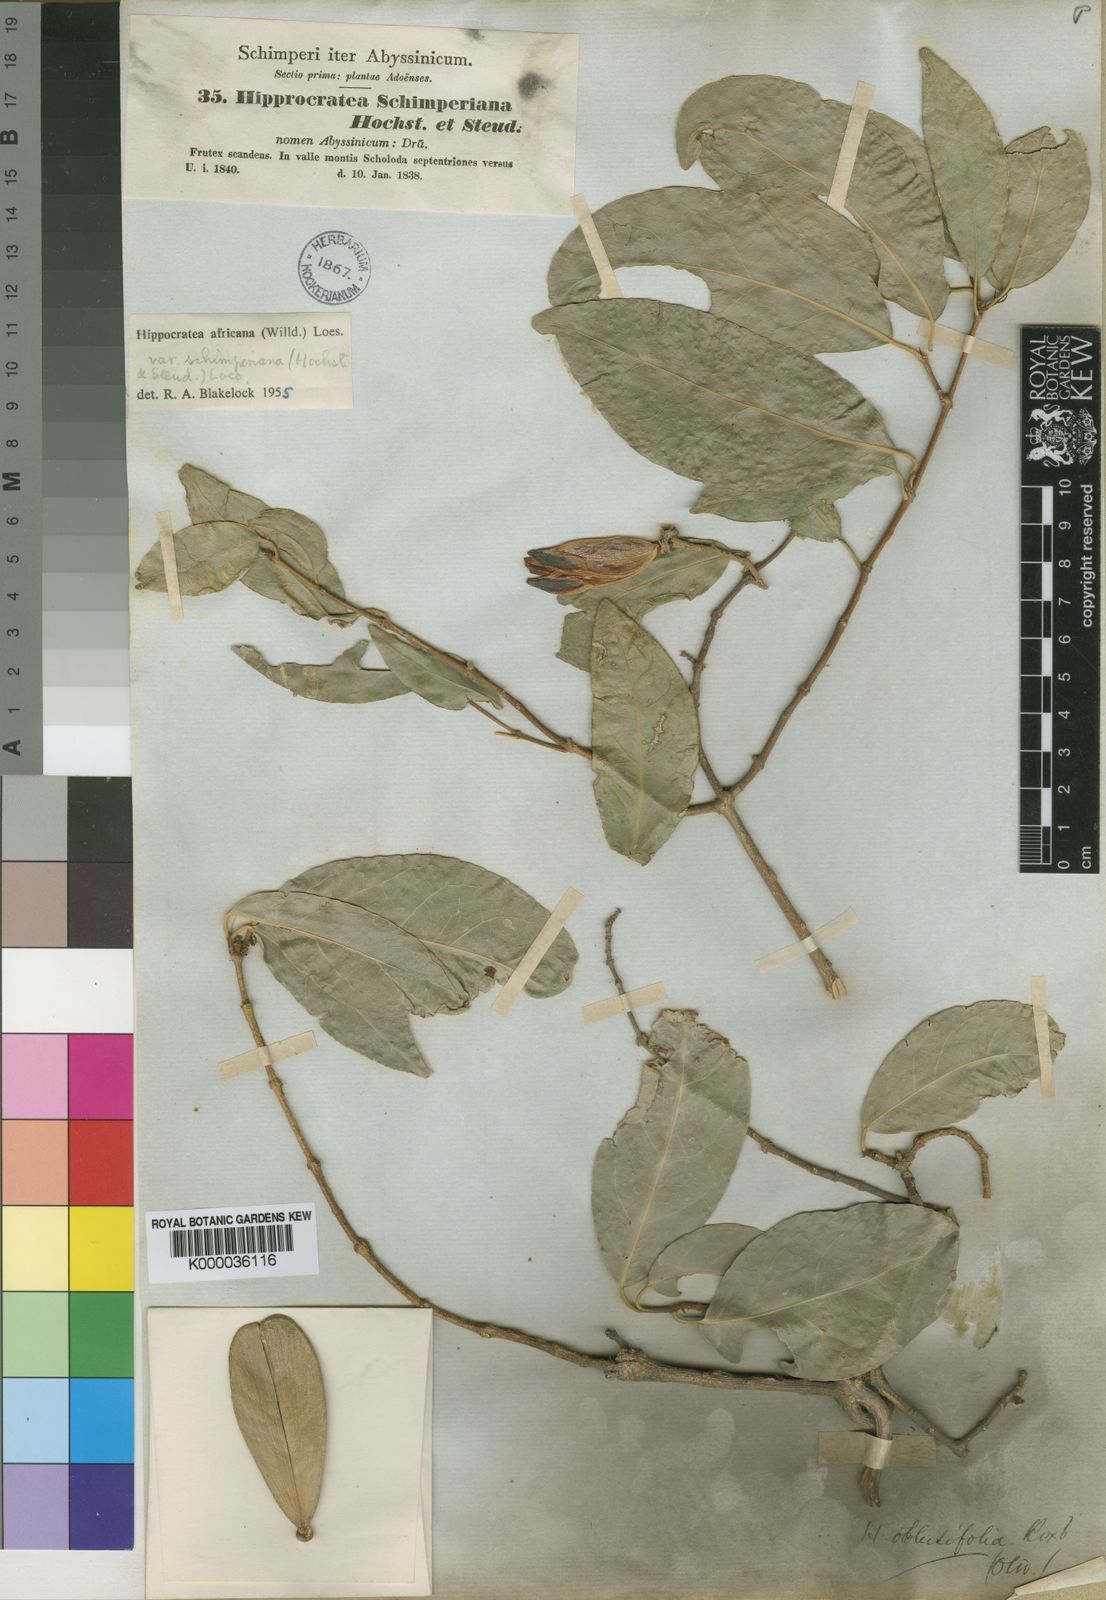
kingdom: Plantae
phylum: Tracheophyta
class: Magnoliopsida
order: Celastrales
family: Celastraceae
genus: Loeseneriella
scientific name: Loeseneriella
